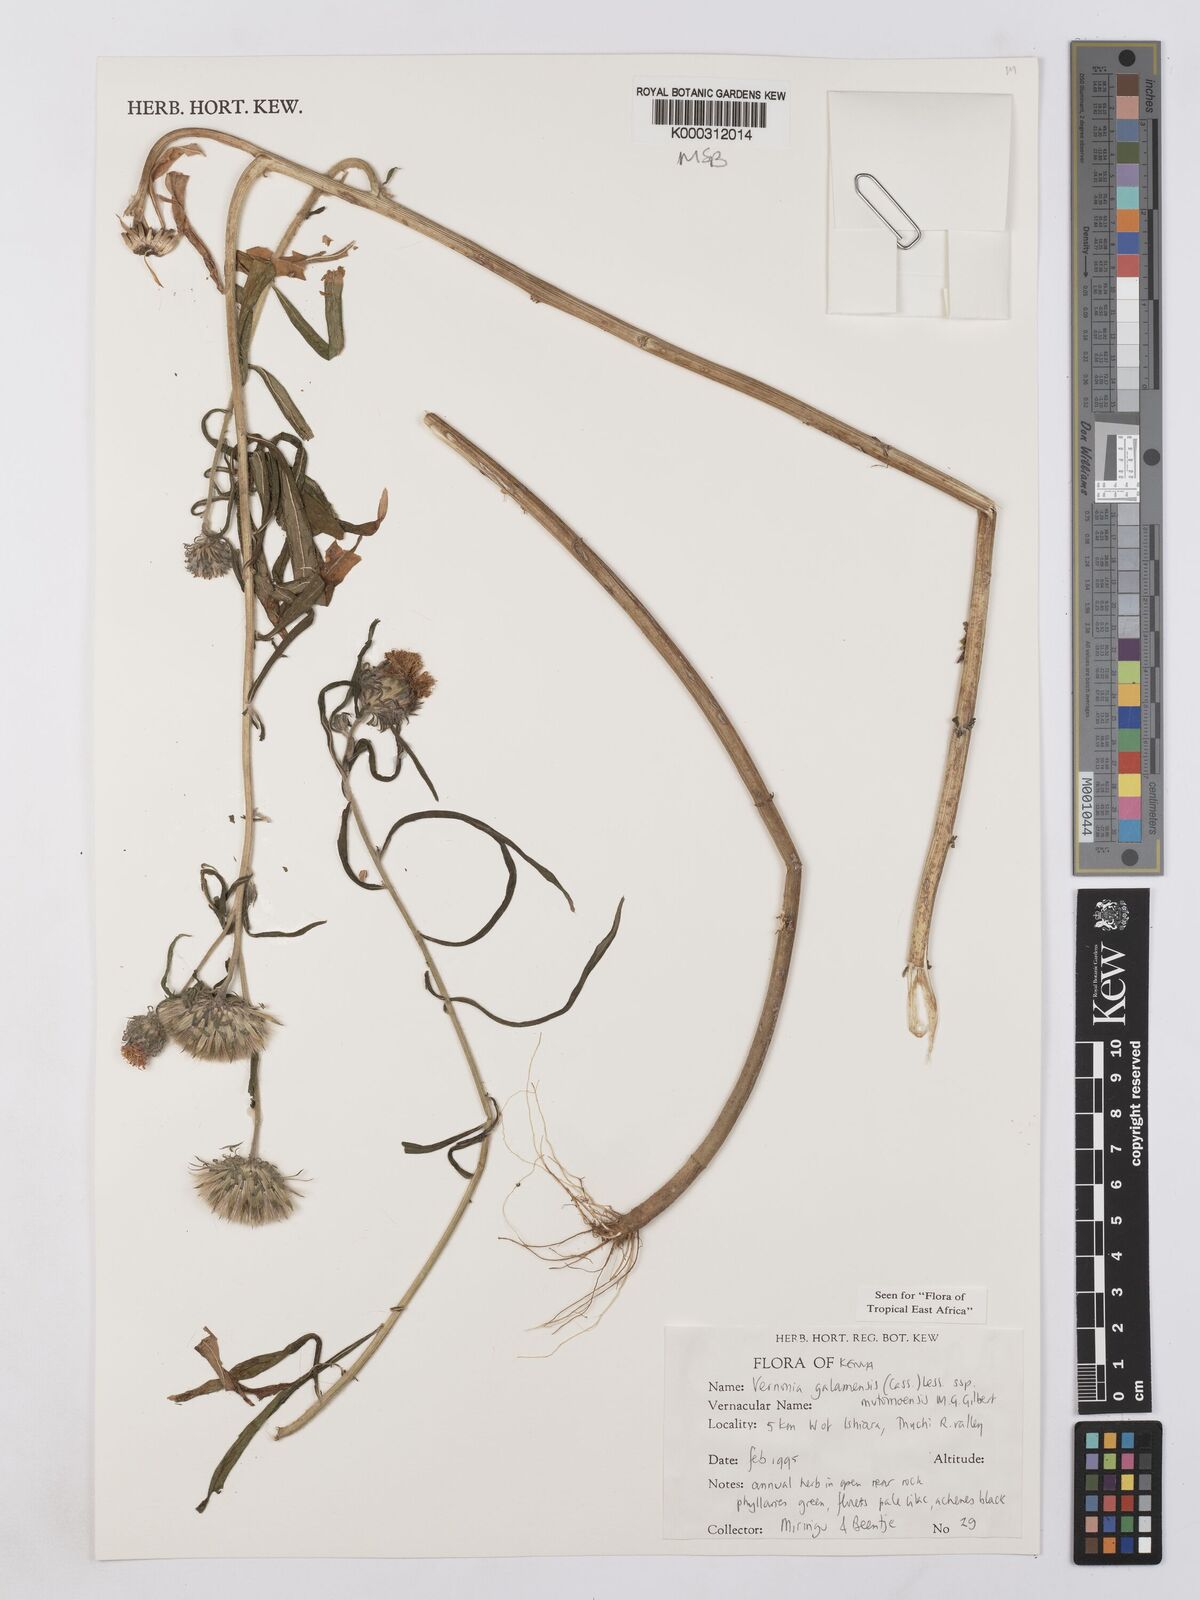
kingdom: Plantae
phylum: Tracheophyta
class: Magnoliopsida
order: Asterales
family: Asteraceae
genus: Vernonia
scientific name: Vernonia galamensis
